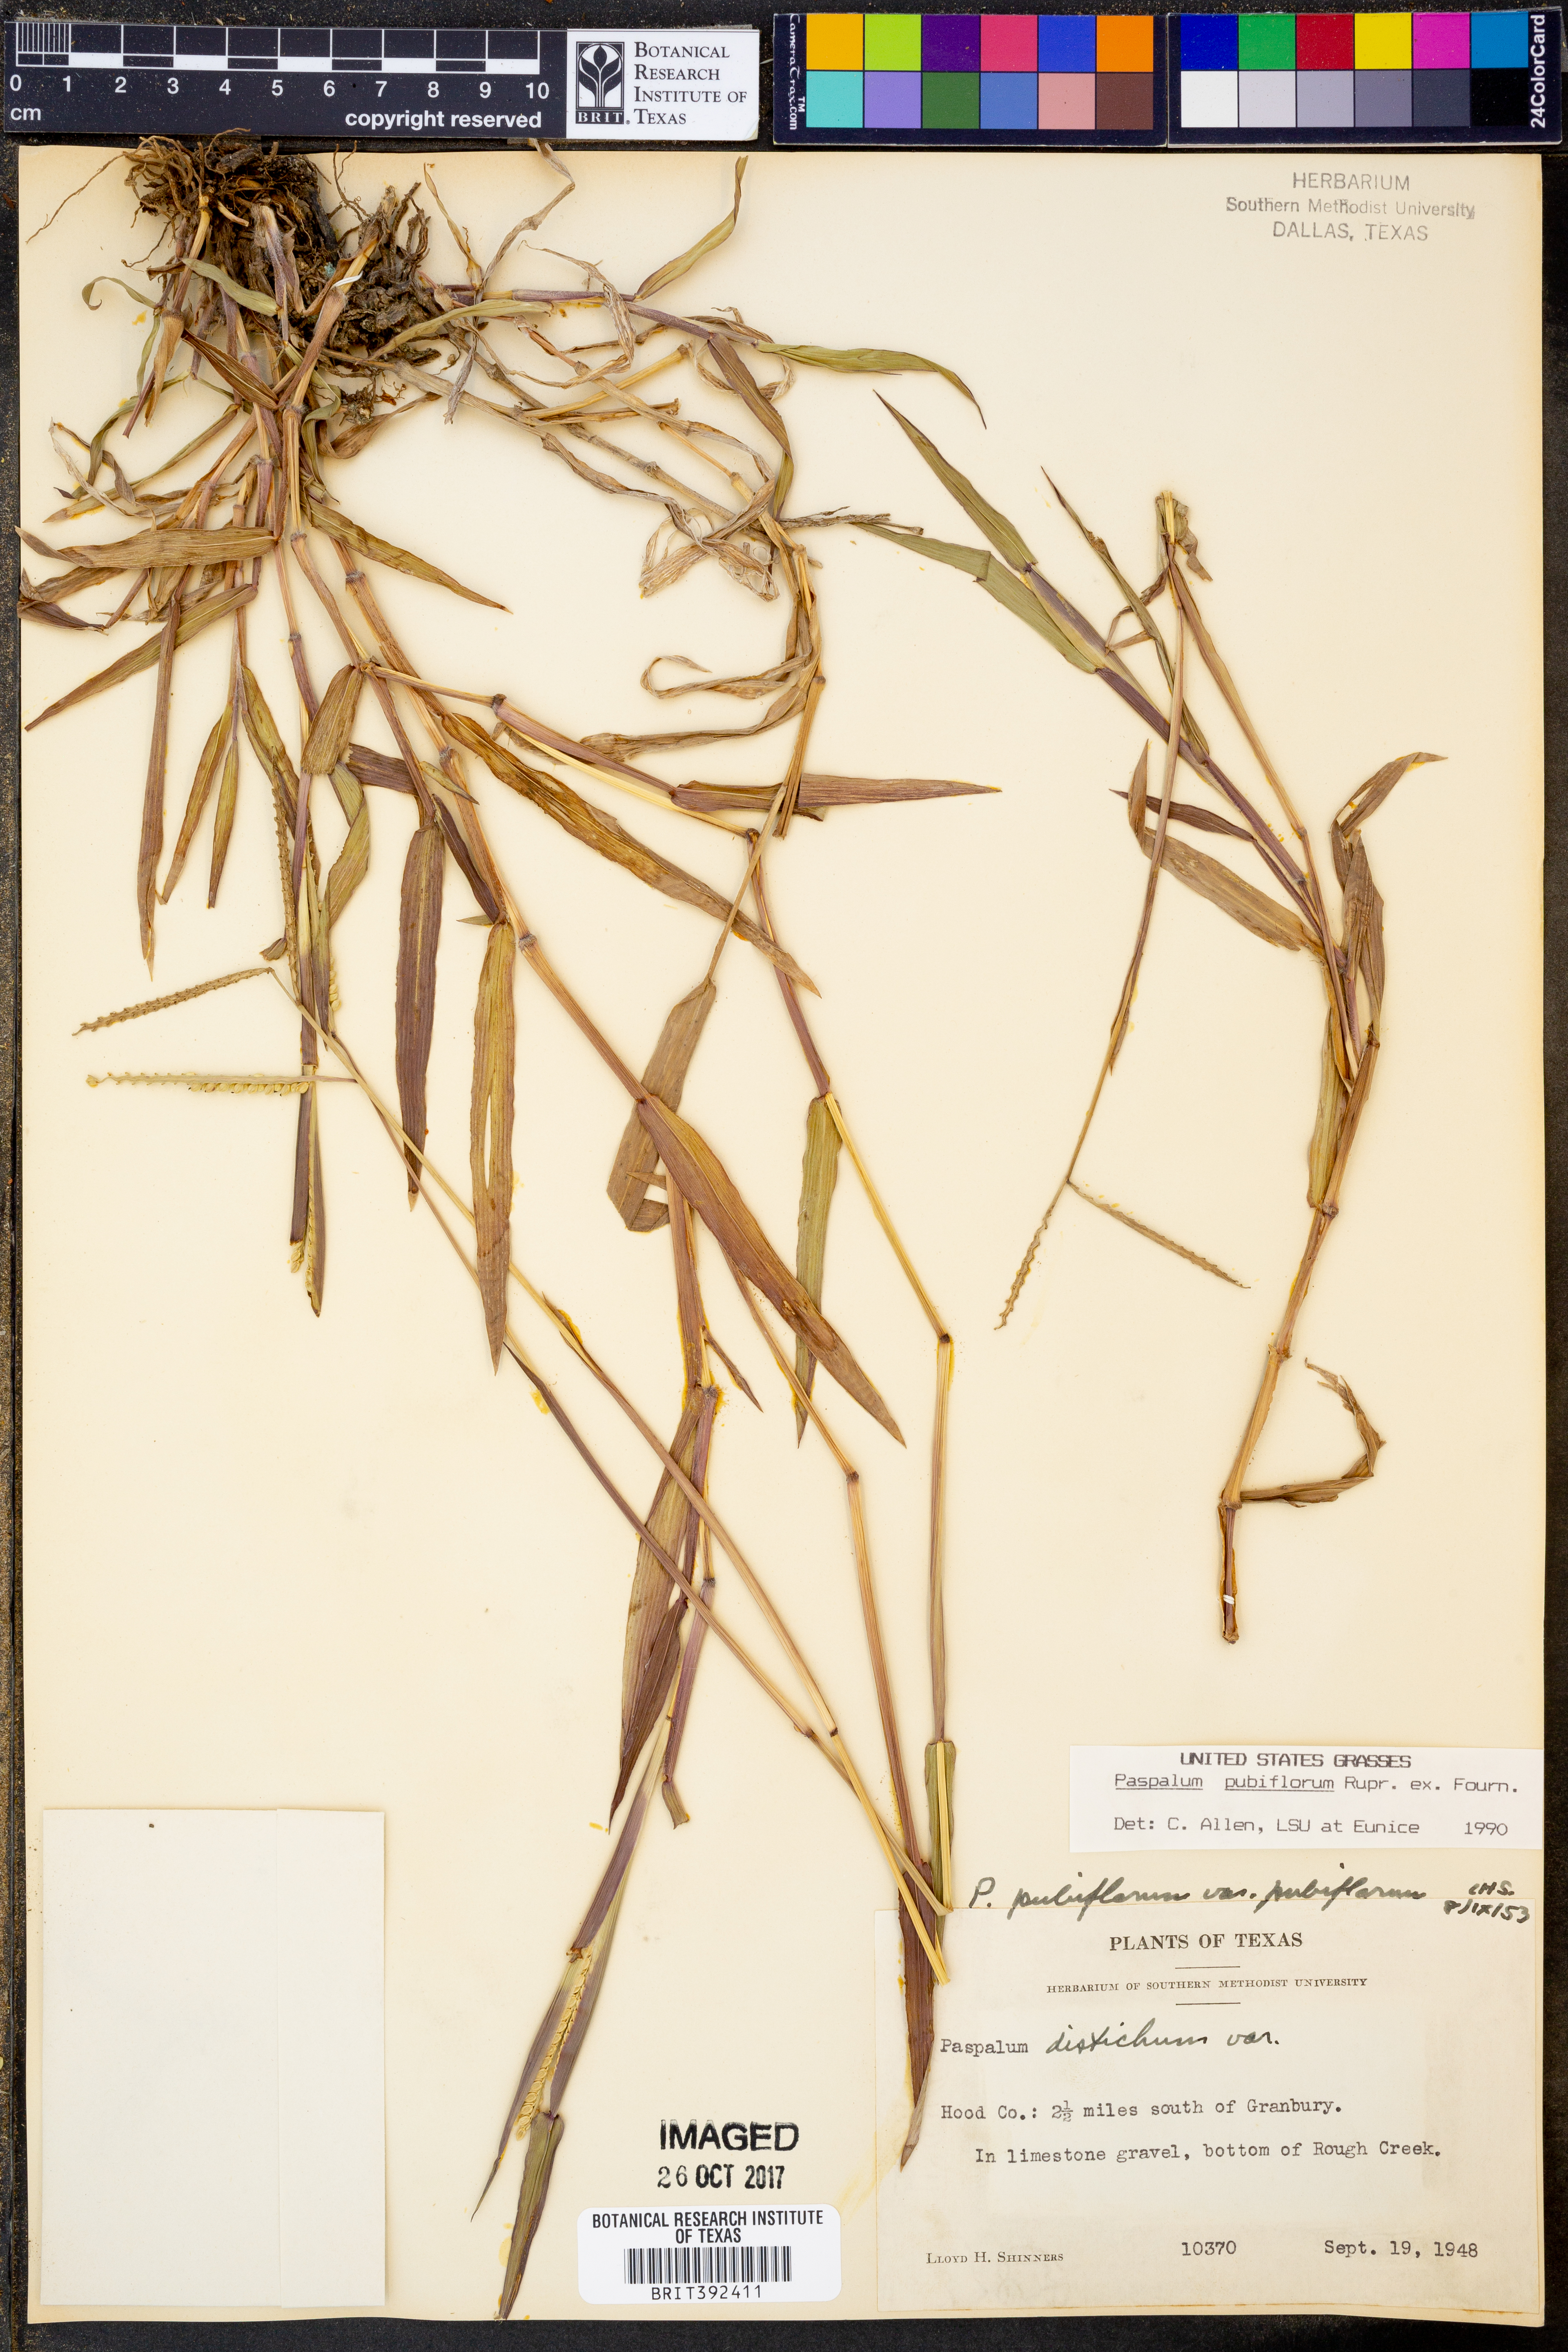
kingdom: Plantae
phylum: Tracheophyta
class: Liliopsida
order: Poales
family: Poaceae
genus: Paspalum
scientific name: Paspalum pubiflorum
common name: Hairy-seed paspalum
